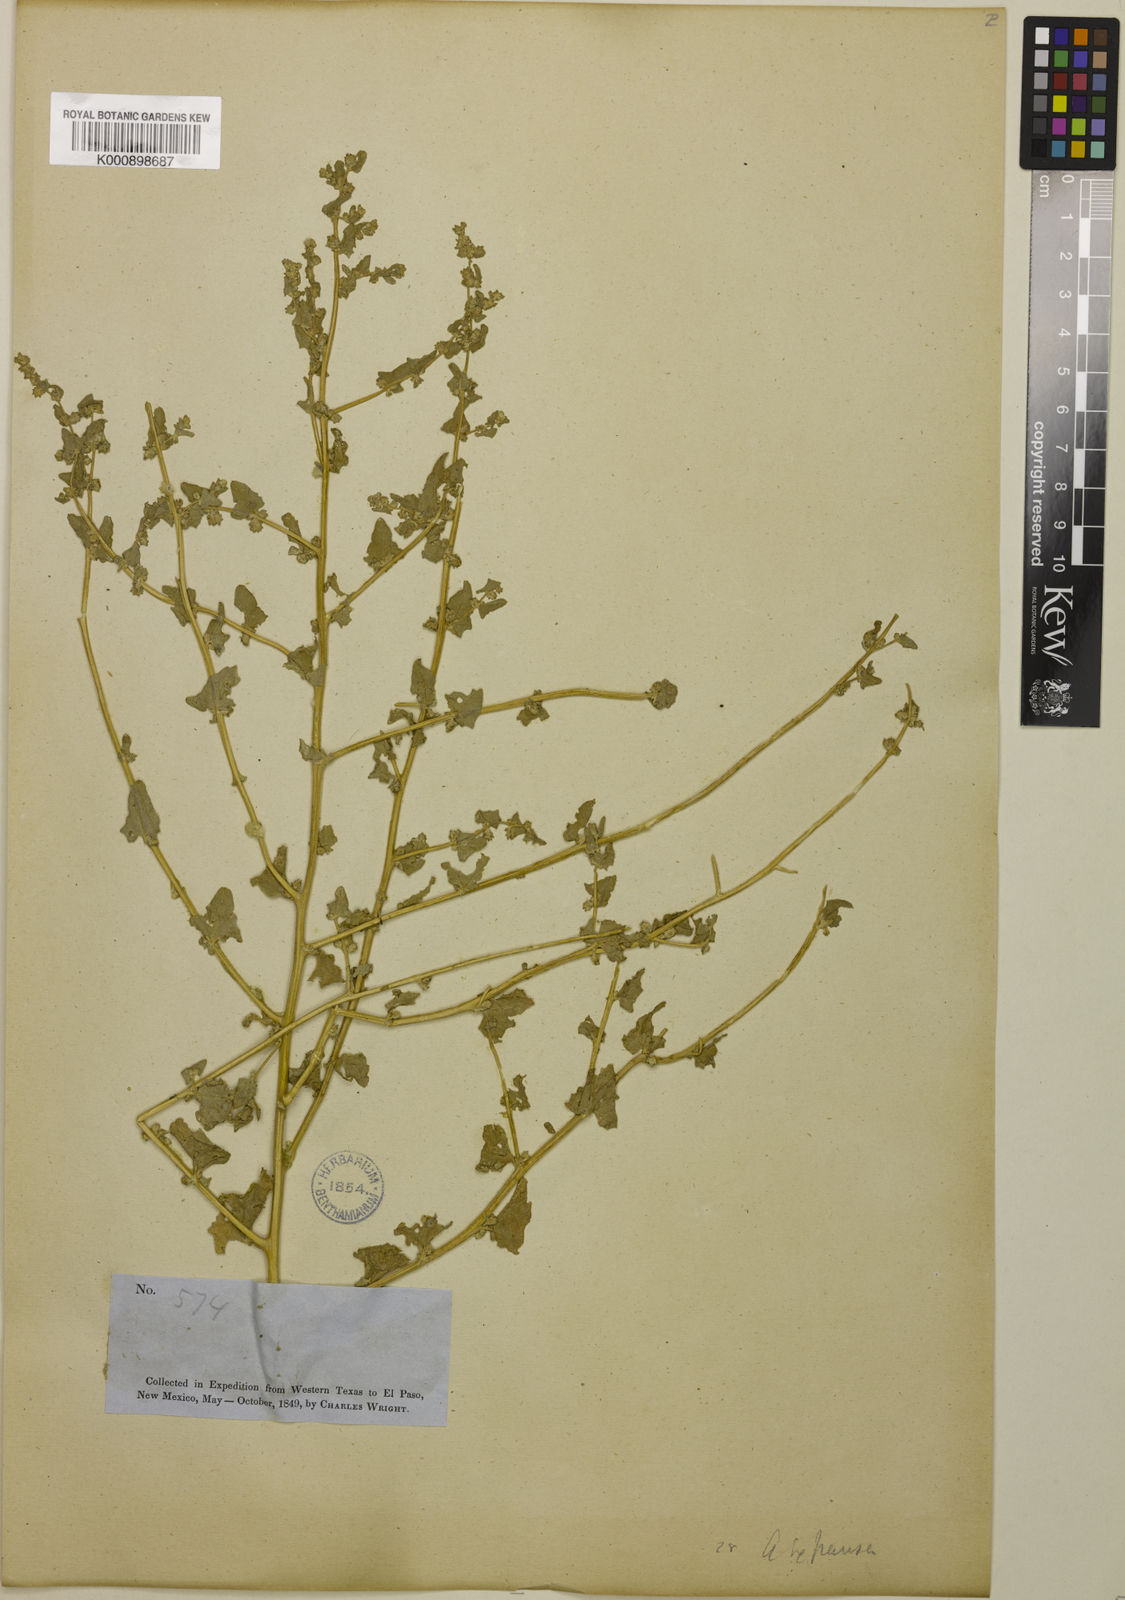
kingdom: Plantae
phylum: Tracheophyta
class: Magnoliopsida
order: Caryophyllales
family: Amaranthaceae
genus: Atriplex
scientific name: Atriplex argentea
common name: Silverscale
